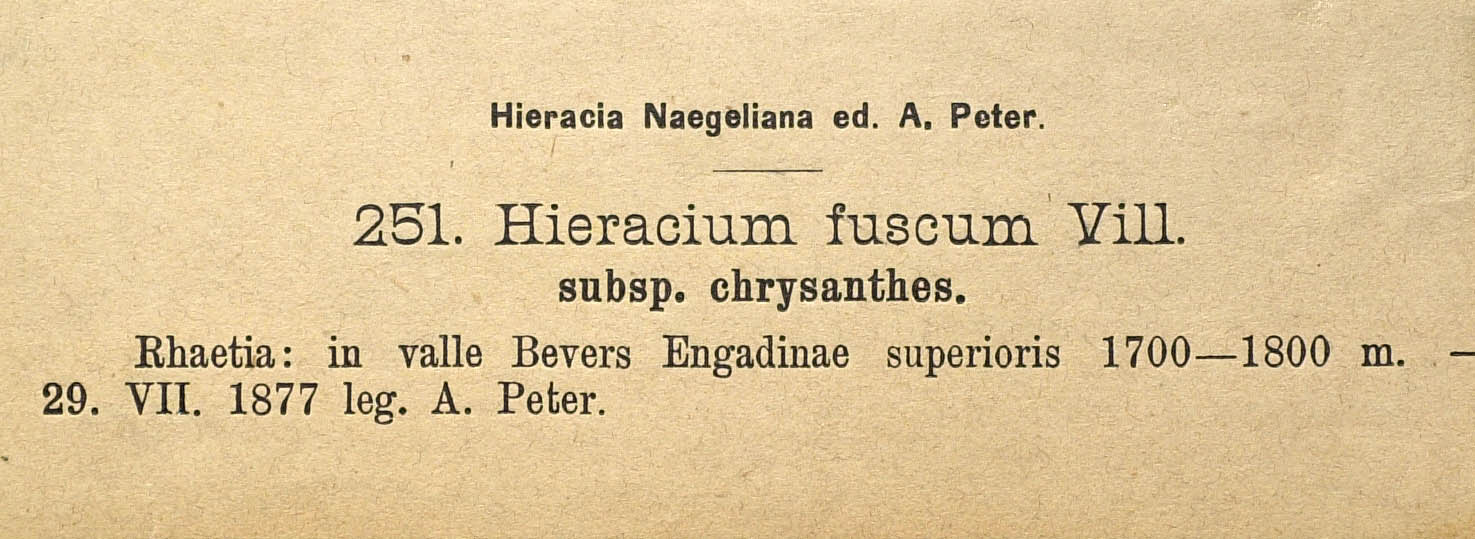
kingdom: Plantae
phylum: Tracheophyta
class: Magnoliopsida
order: Asterales
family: Asteraceae
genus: Pilosella
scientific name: Pilosella fusca
